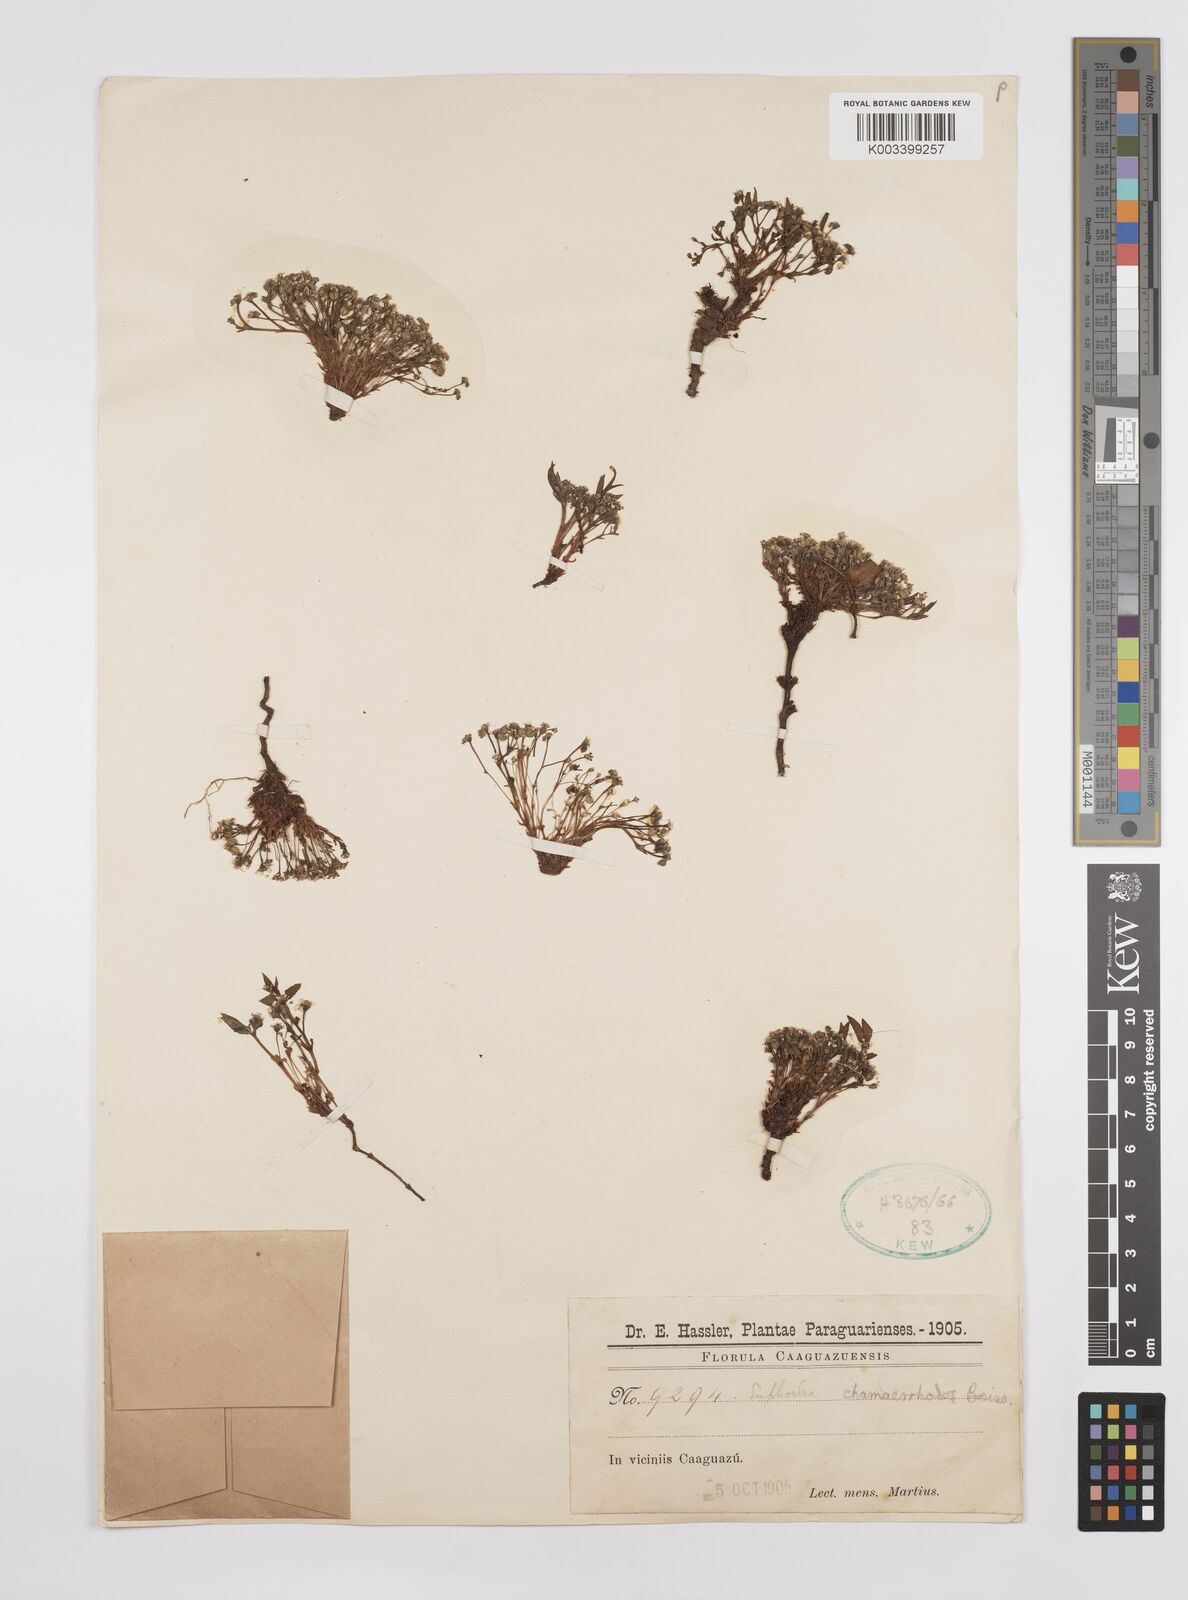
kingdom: Plantae
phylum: Tracheophyta
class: Magnoliopsida
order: Malpighiales
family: Euphorbiaceae
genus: Euphorbia
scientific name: Euphorbia chamaerrhodos
